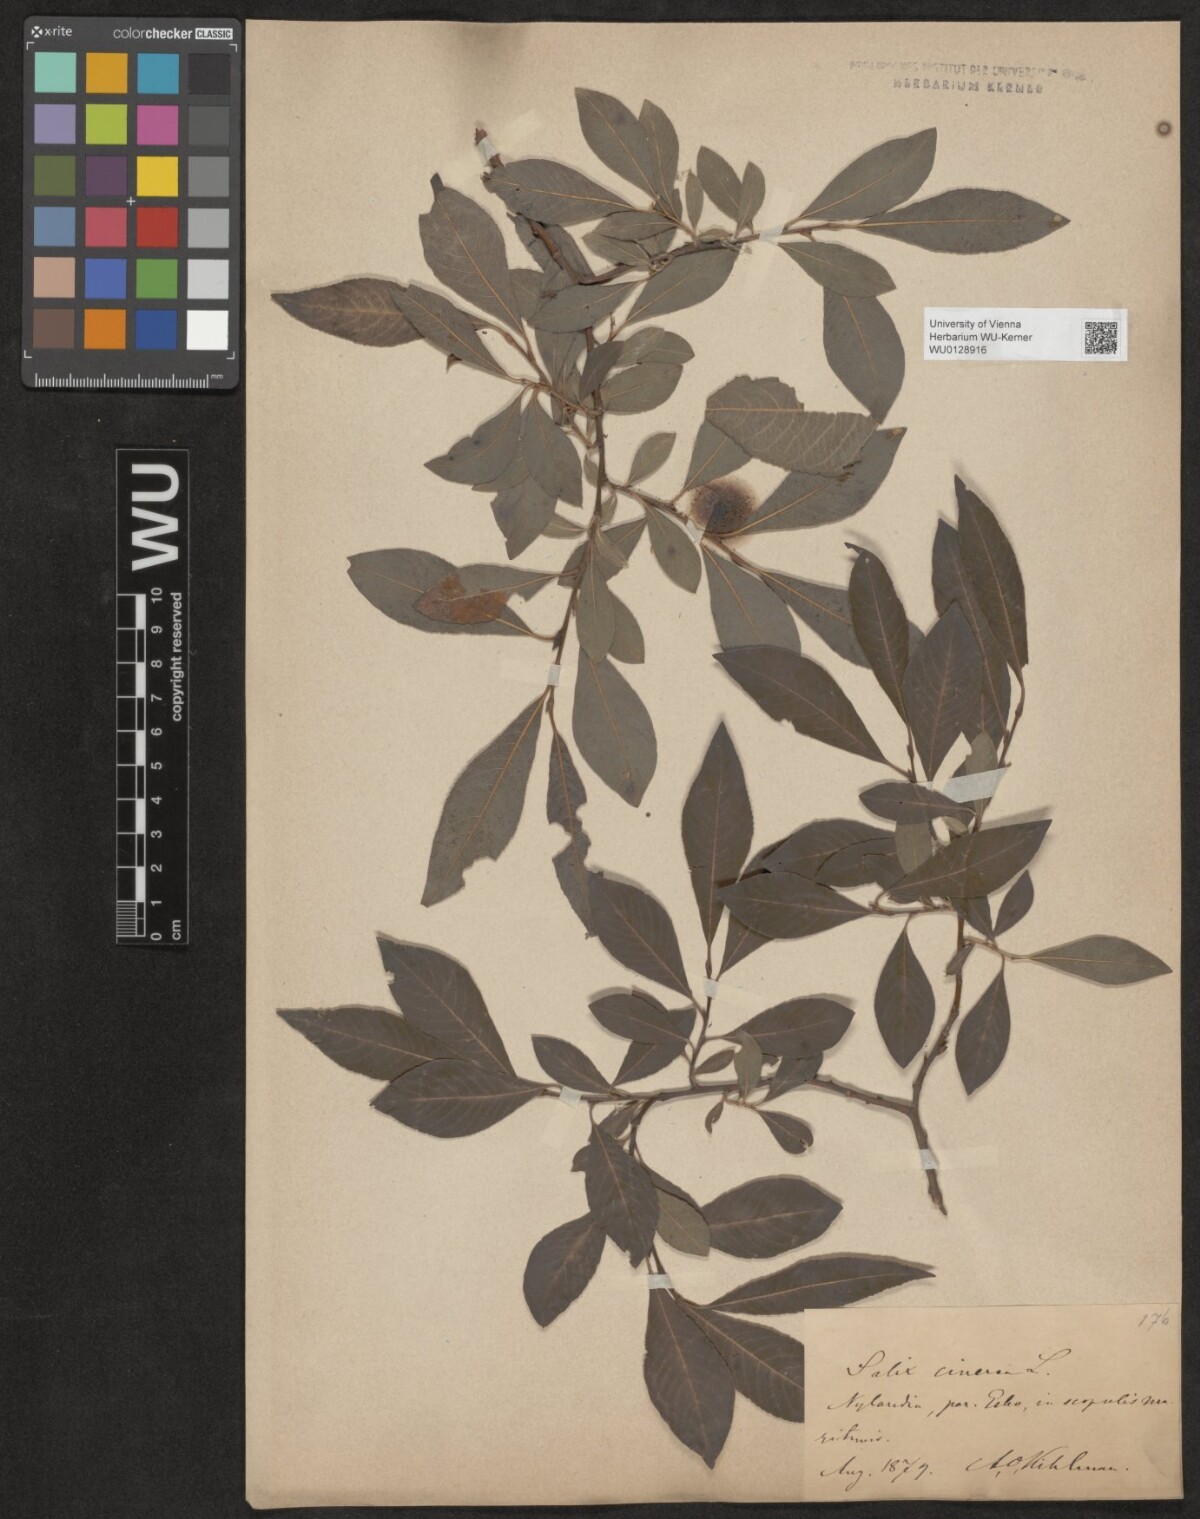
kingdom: Plantae
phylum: Tracheophyta
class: Magnoliopsida
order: Malpighiales
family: Salicaceae
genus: Salix
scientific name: Salix cinerea
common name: Common sallow
